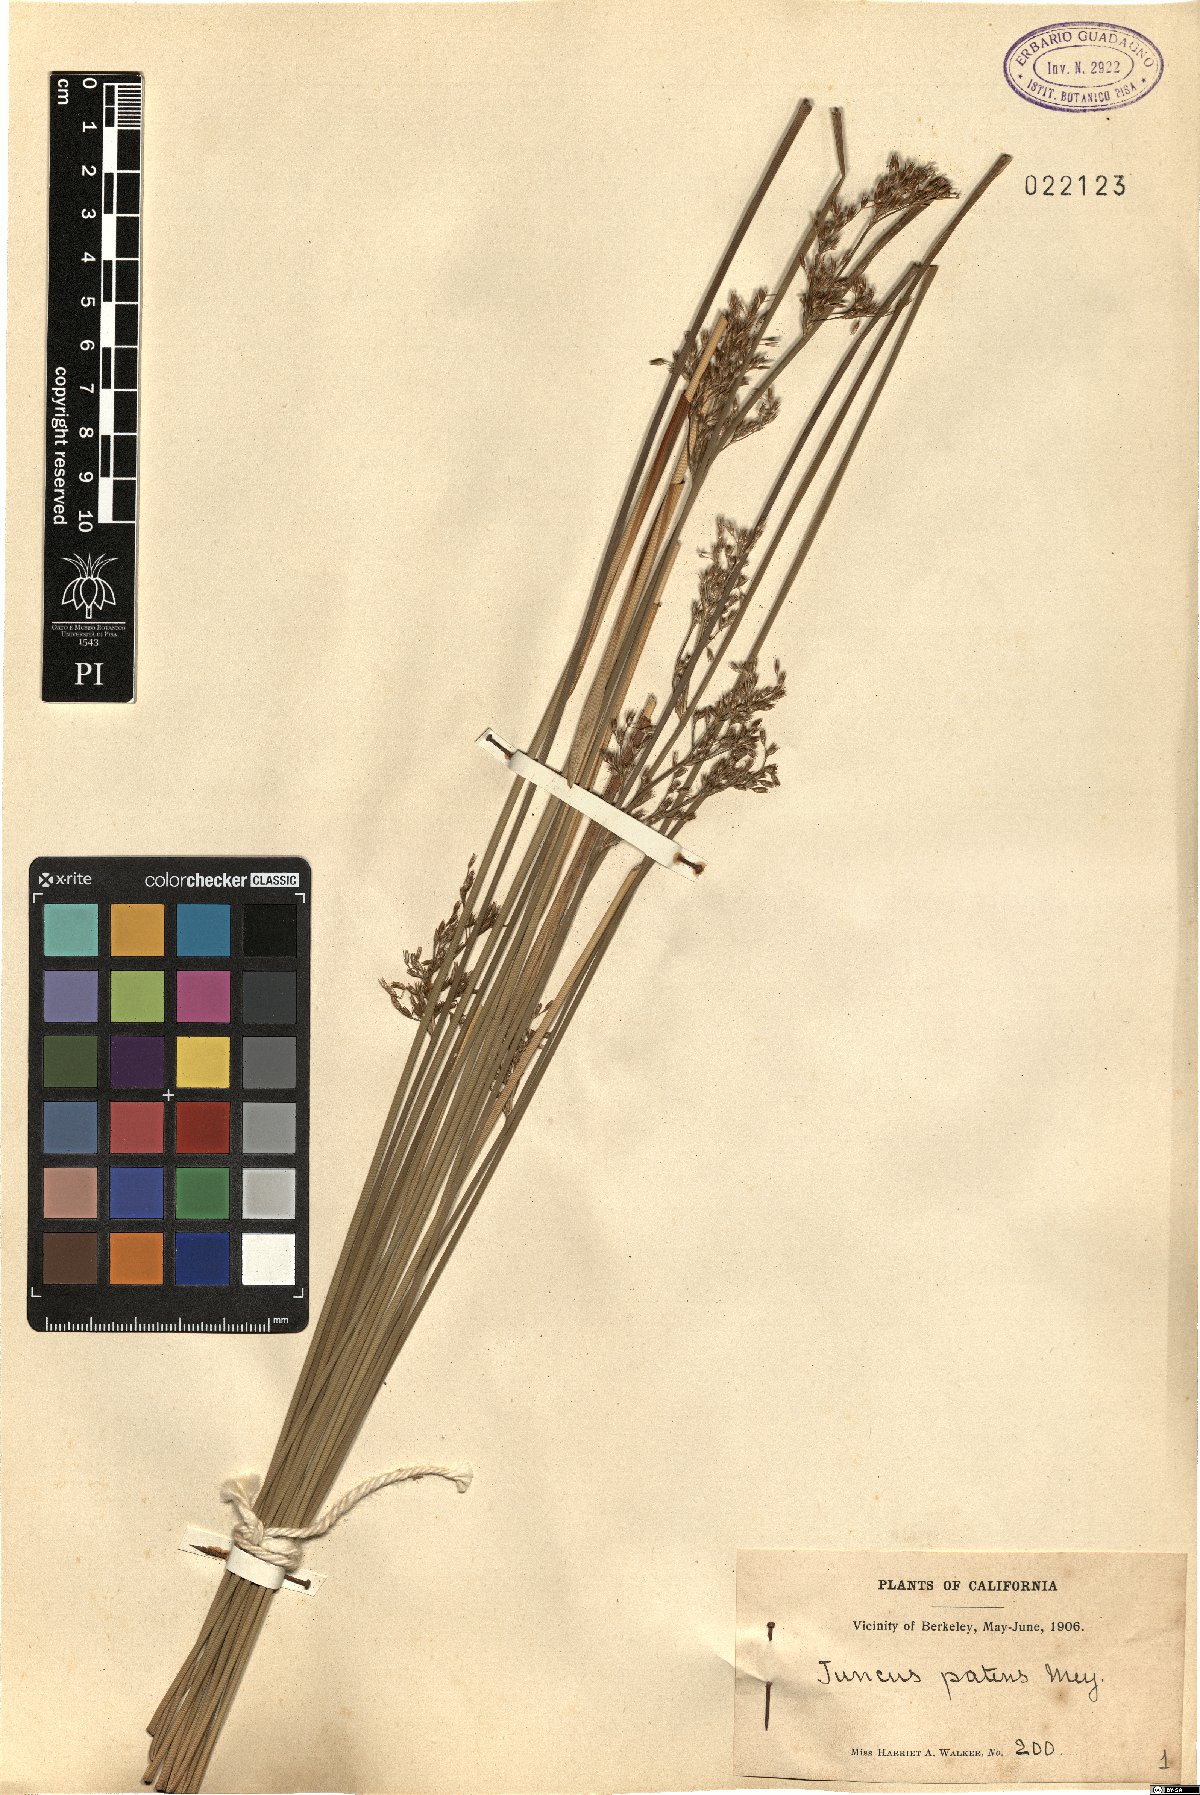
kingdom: Plantae
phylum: Tracheophyta
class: Liliopsida
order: Poales
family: Juncaceae
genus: Juncus
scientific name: Juncus patens
